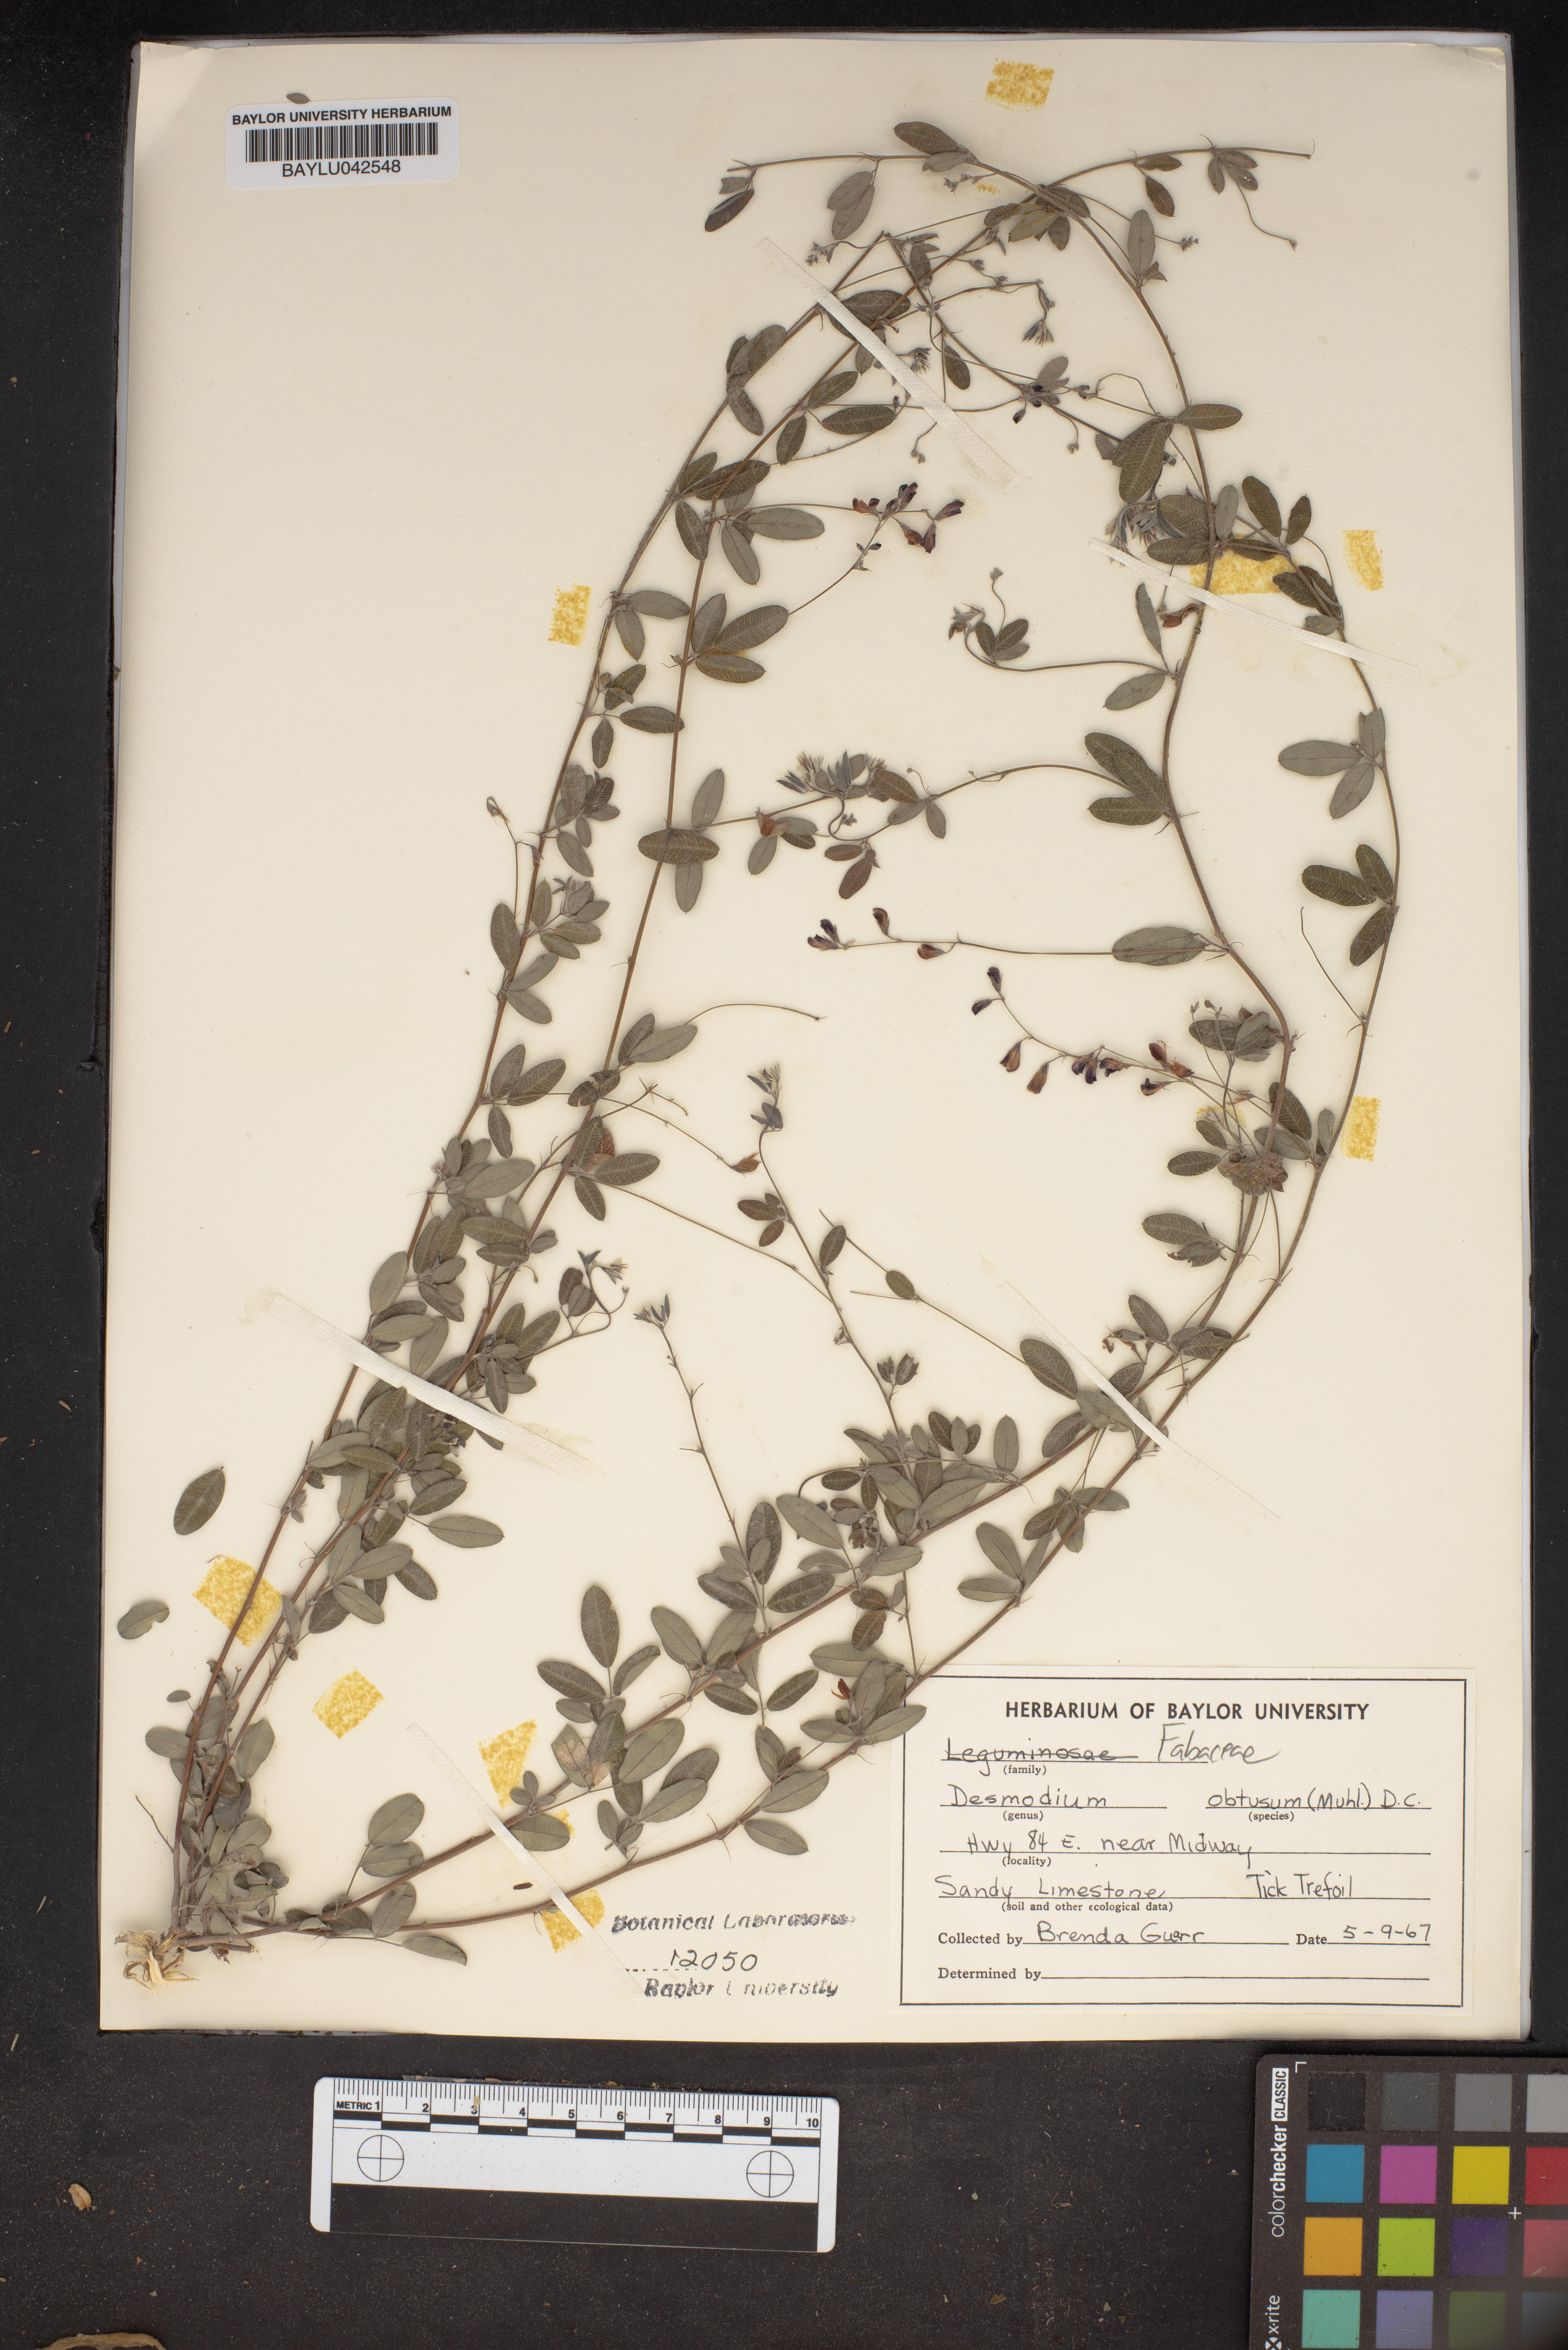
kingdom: Plantae
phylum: Tracheophyta
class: Magnoliopsida
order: Fabales
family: Fabaceae
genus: Desmodium
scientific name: Desmodium obtusum
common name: Stiff tick trefoil
